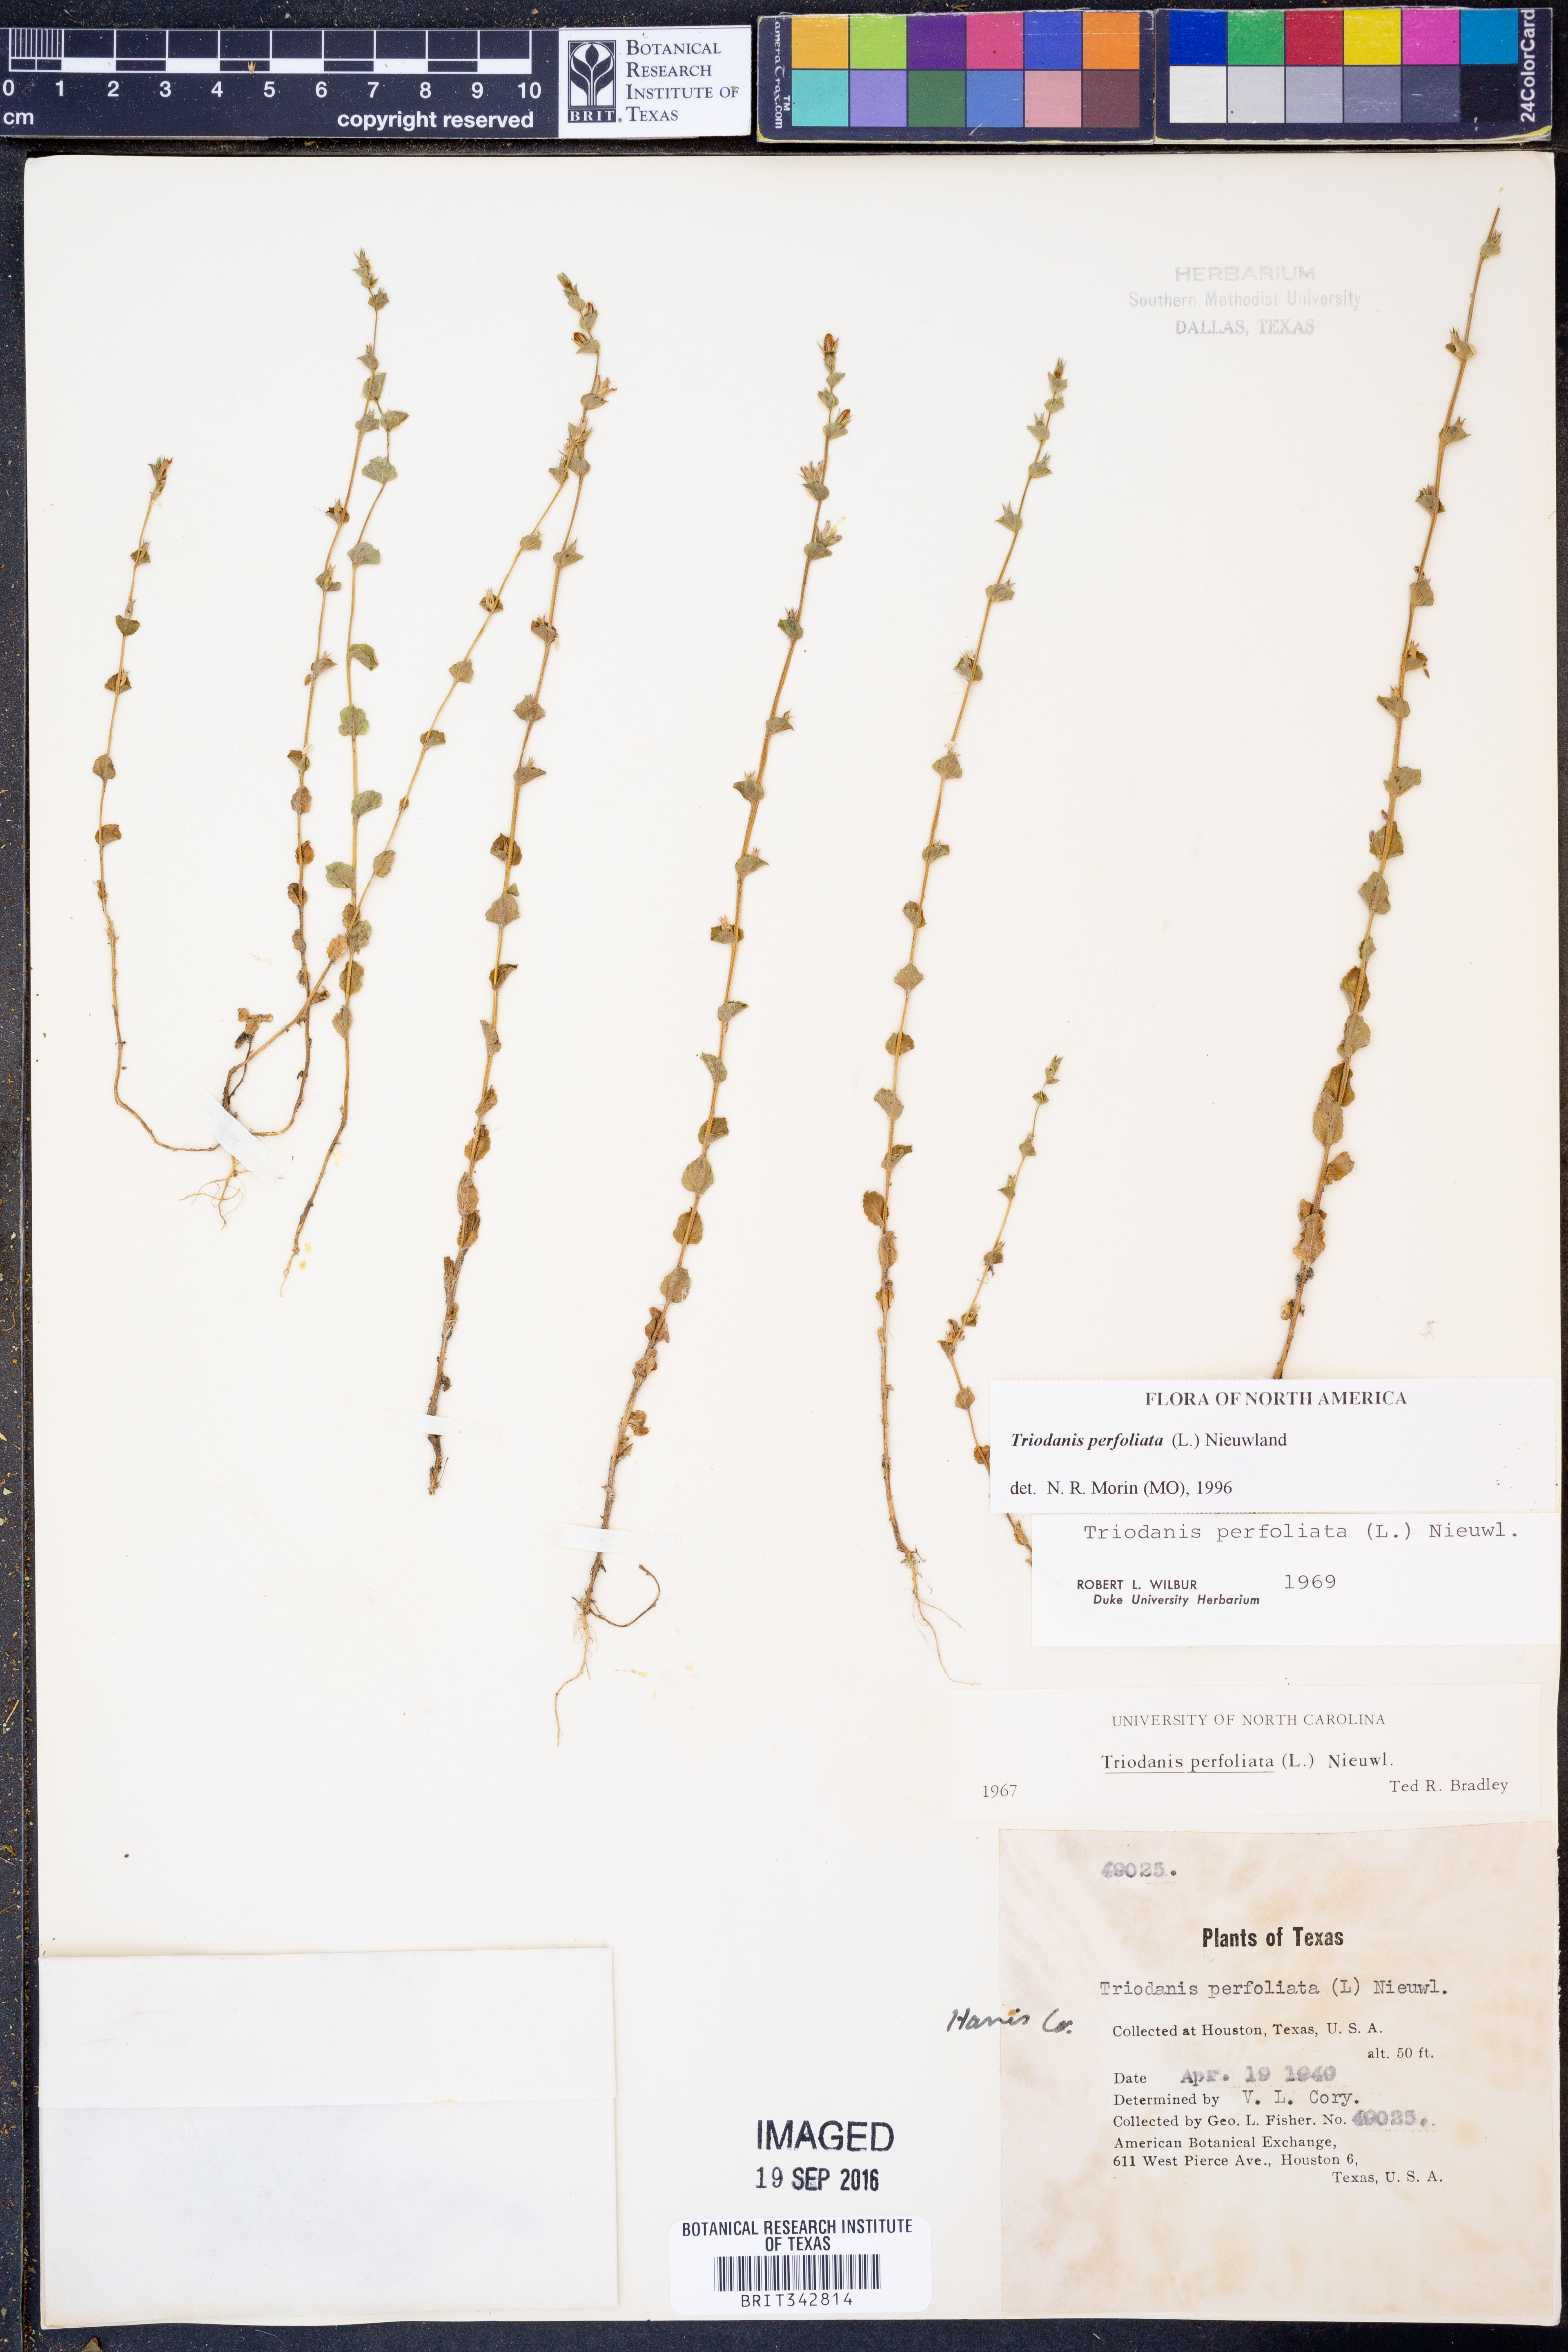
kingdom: Plantae
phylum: Tracheophyta
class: Magnoliopsida
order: Asterales
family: Campanulaceae
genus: Triodanis
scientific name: Triodanis perfoliata
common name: Clasping venus' looking-glass
